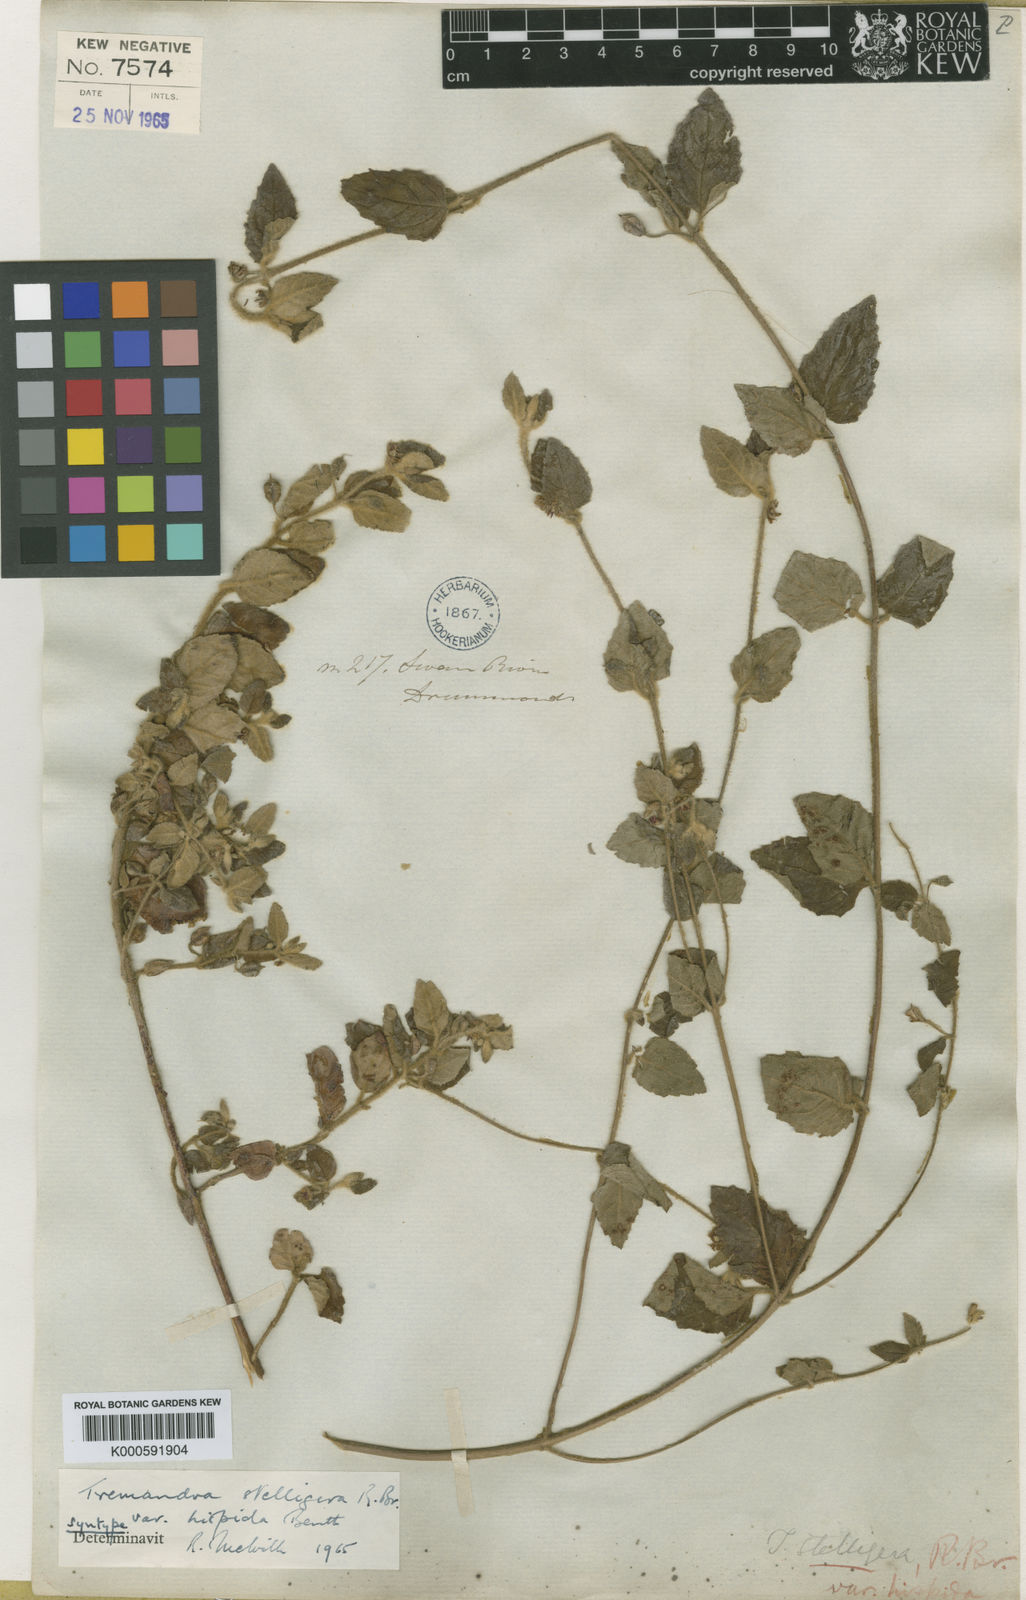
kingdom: Plantae
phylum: Tracheophyta
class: Magnoliopsida
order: Oxalidales
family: Elaeocarpaceae
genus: Tremandra
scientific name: Tremandra stelligera
